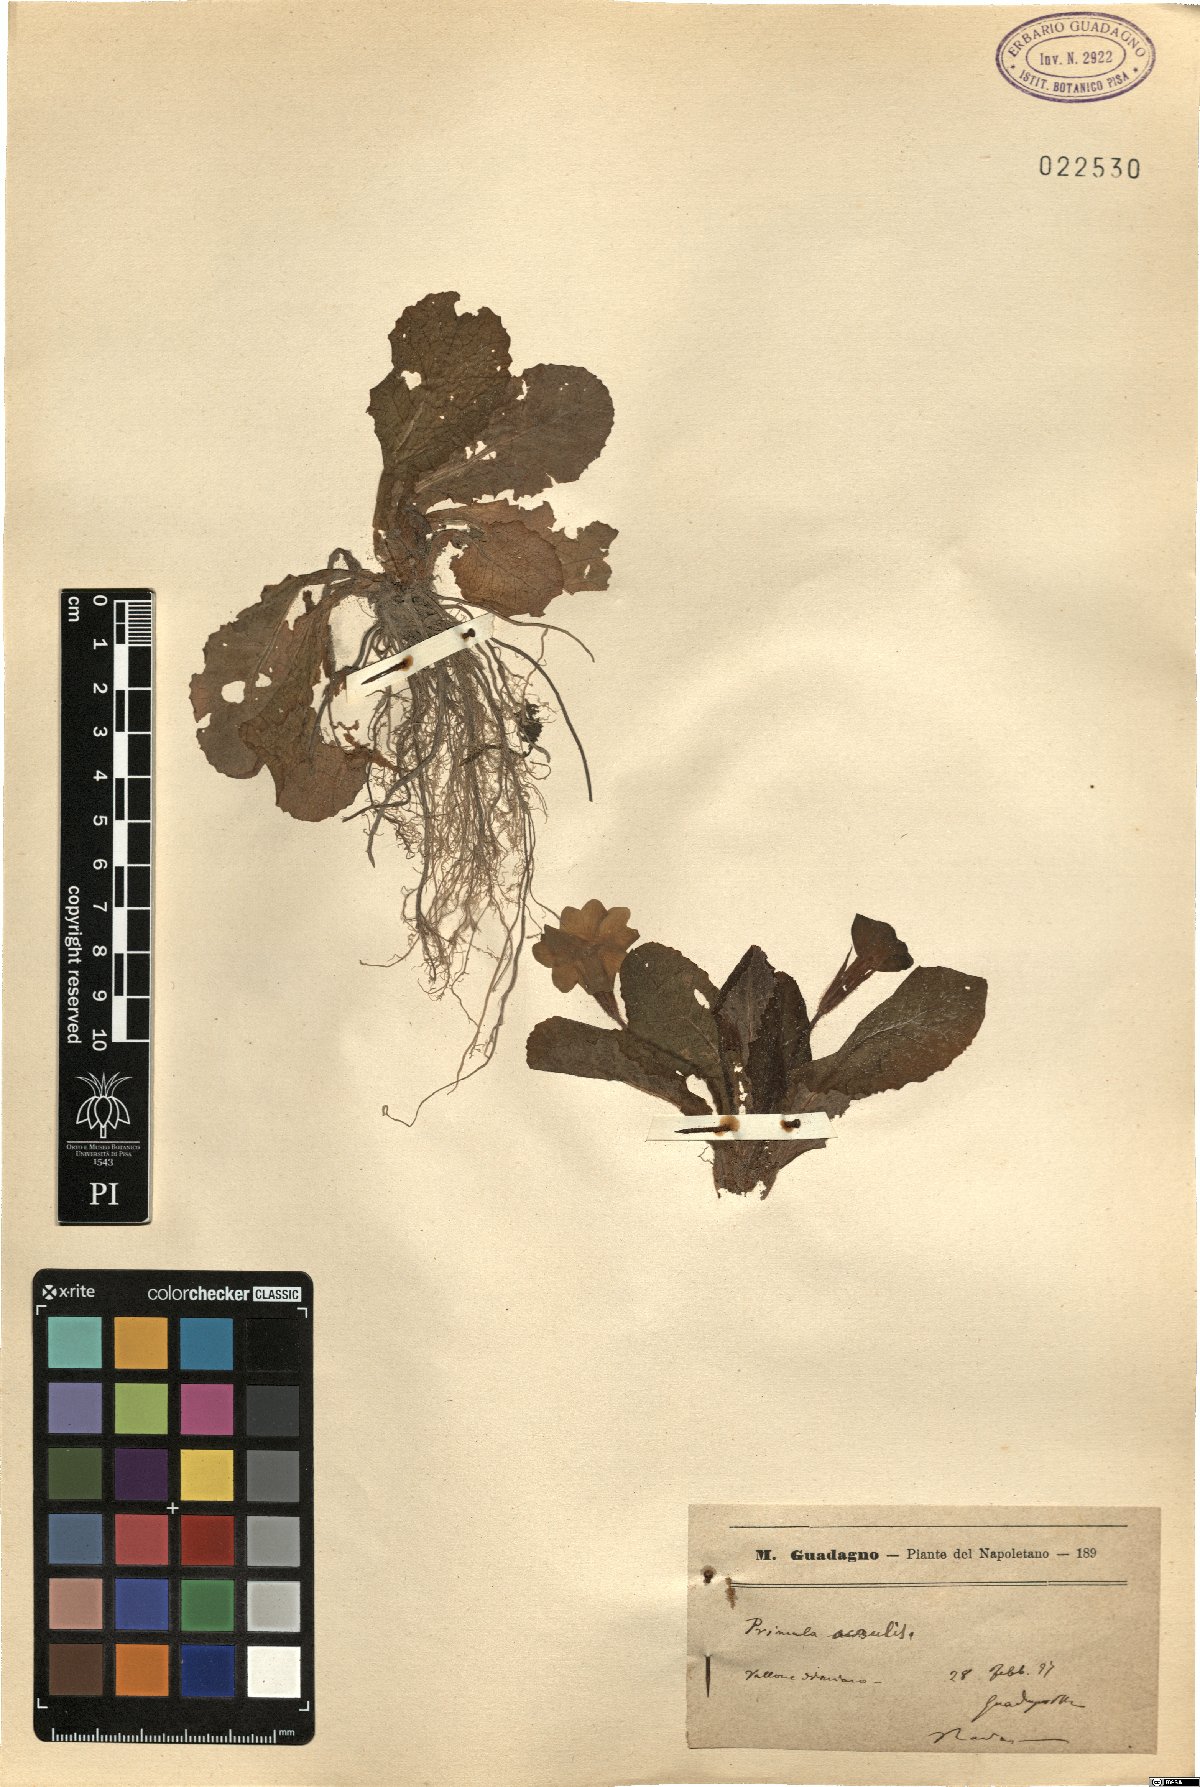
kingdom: Plantae
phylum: Tracheophyta
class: Magnoliopsida
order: Ericales
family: Primulaceae
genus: Primula
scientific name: Primula vulgaris
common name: Primrose
